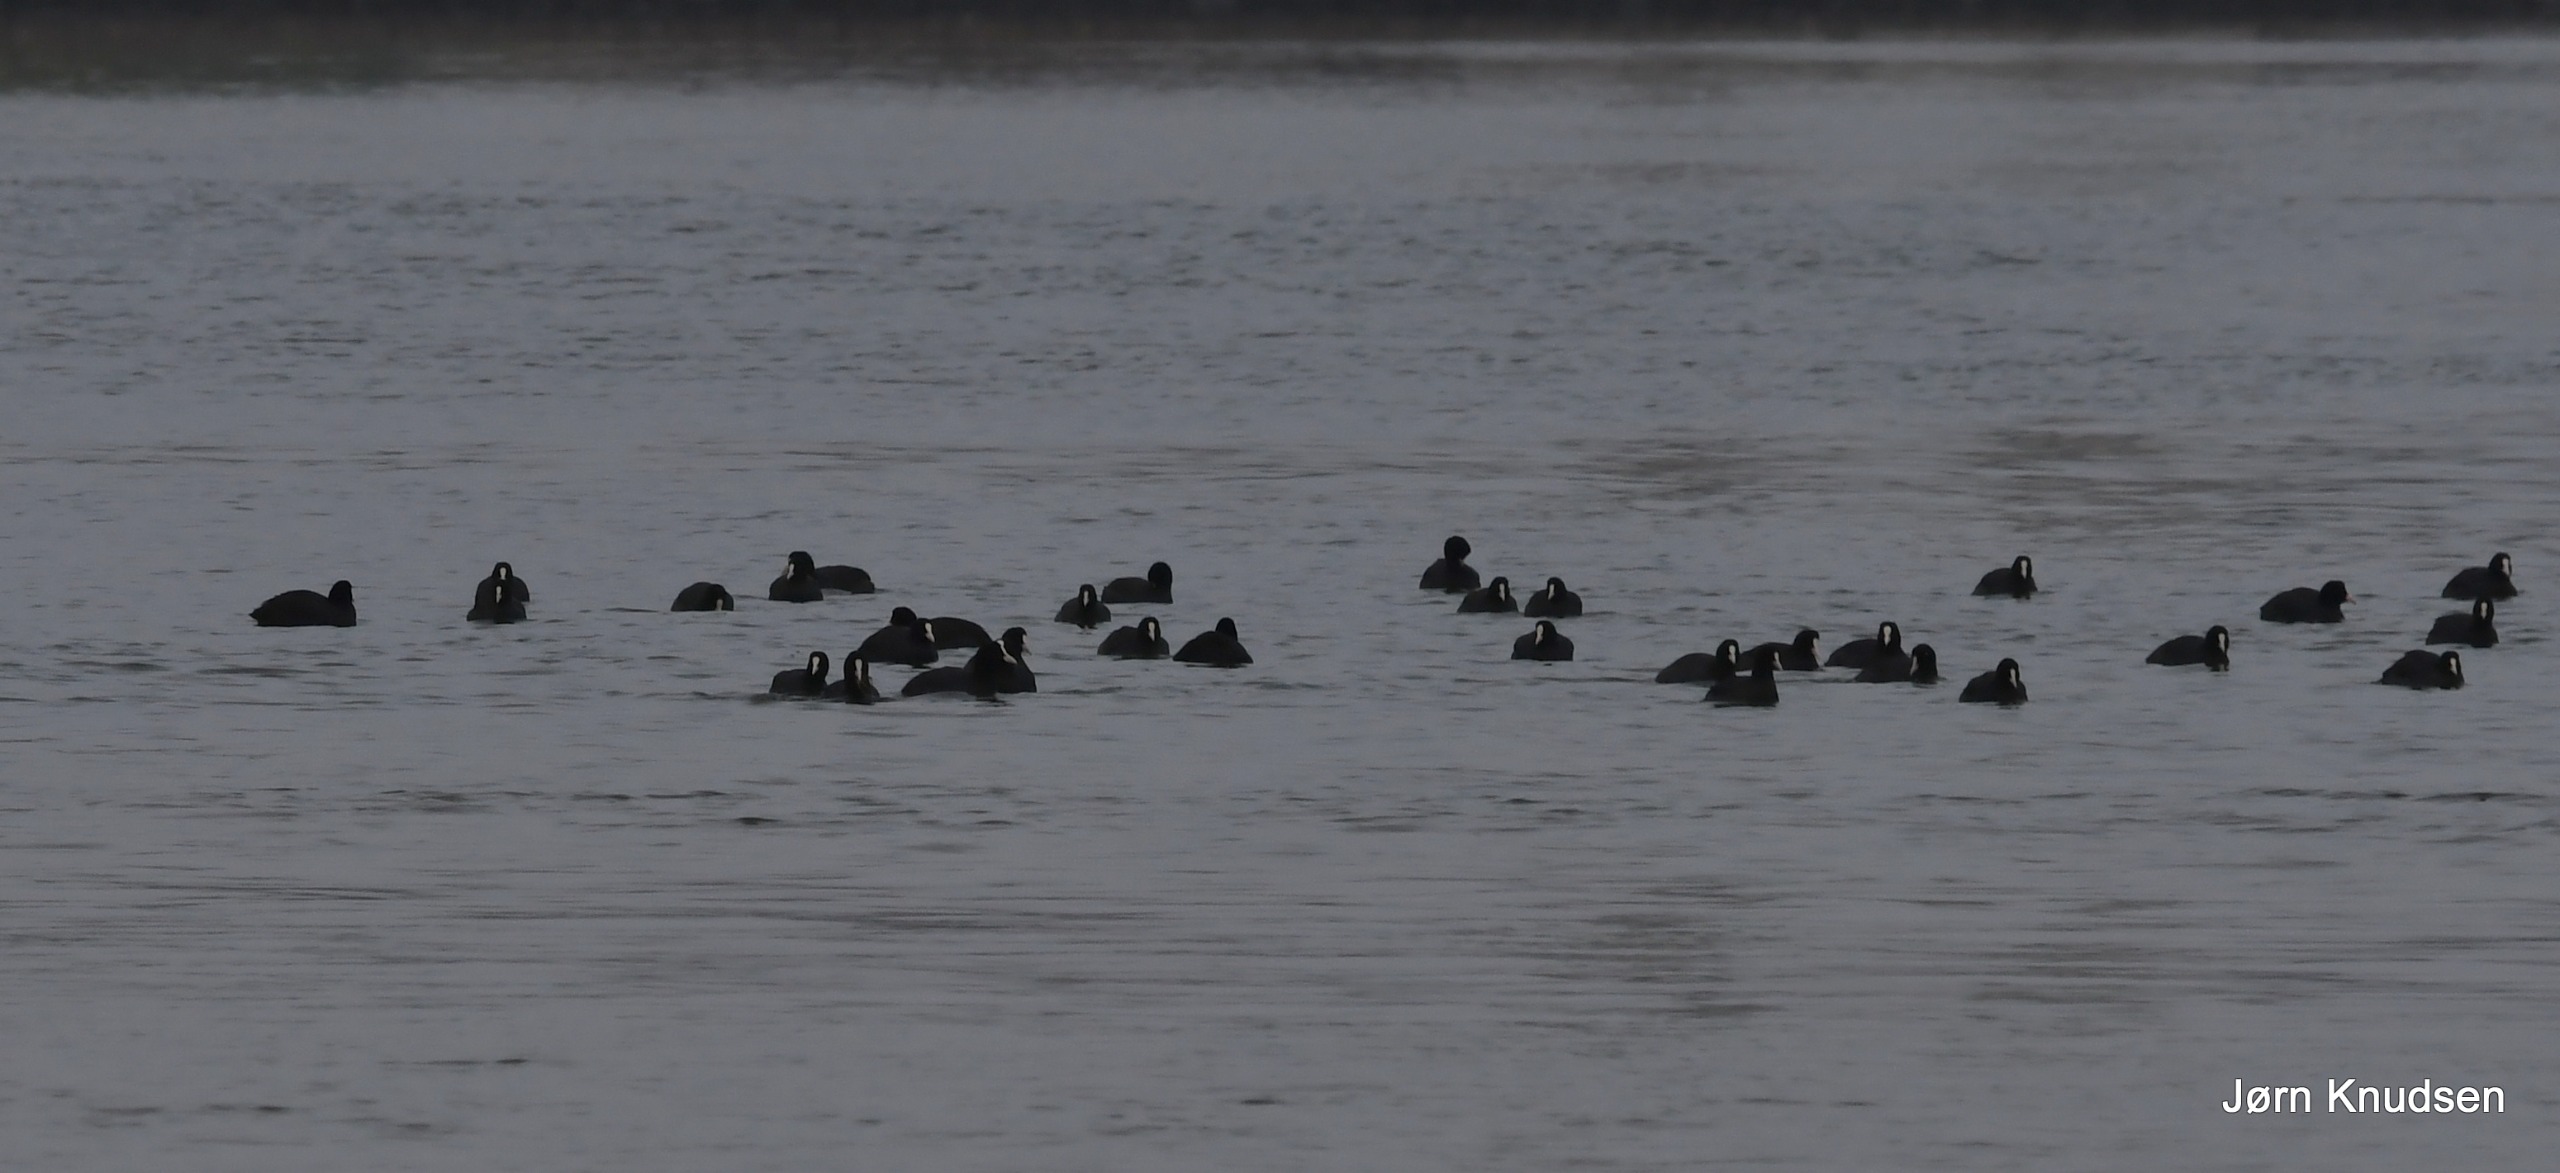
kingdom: Animalia
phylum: Chordata
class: Aves
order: Gruiformes
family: Rallidae
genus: Fulica
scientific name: Fulica atra
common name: Blishøne
